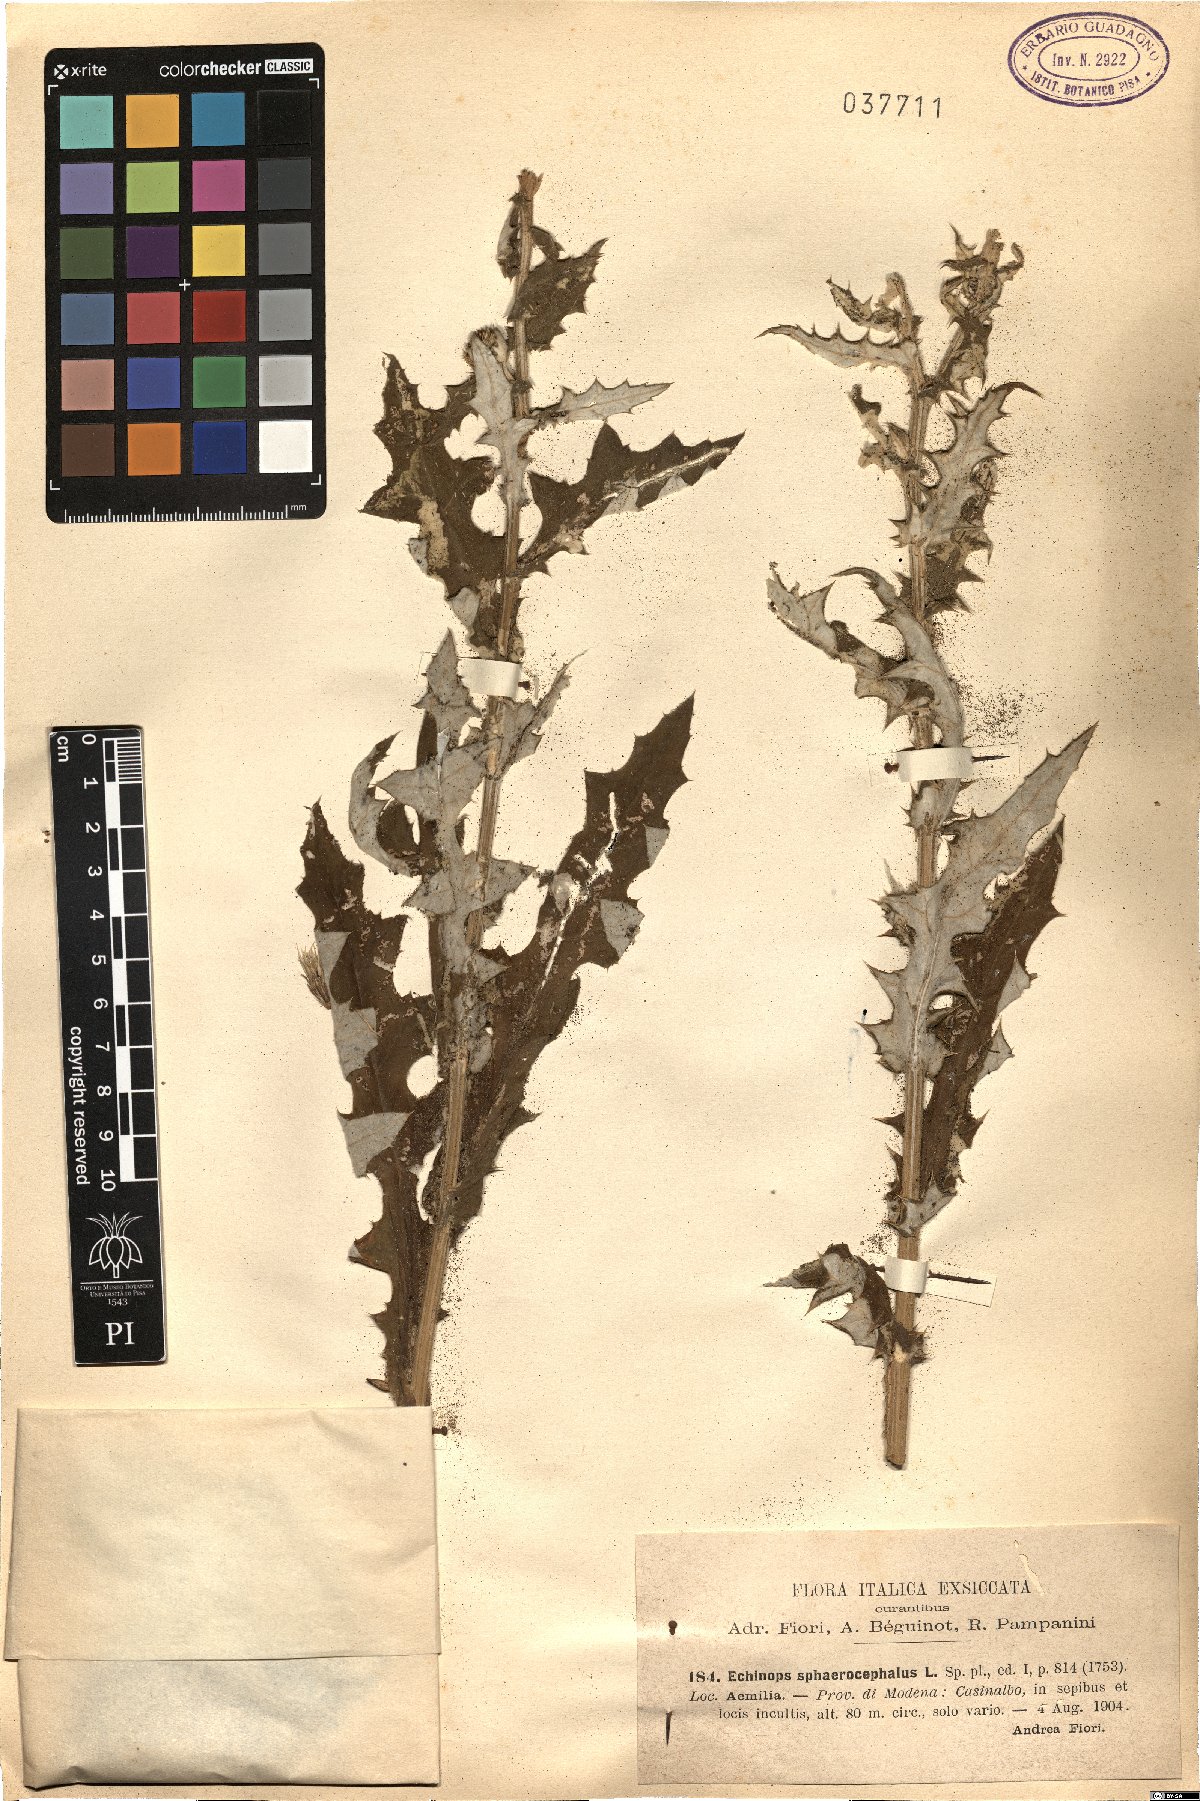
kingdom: Plantae
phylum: Tracheophyta
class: Magnoliopsida
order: Asterales
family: Asteraceae
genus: Echinops
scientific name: Echinops sphaerocephalus
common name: Glandular globe-thistle
